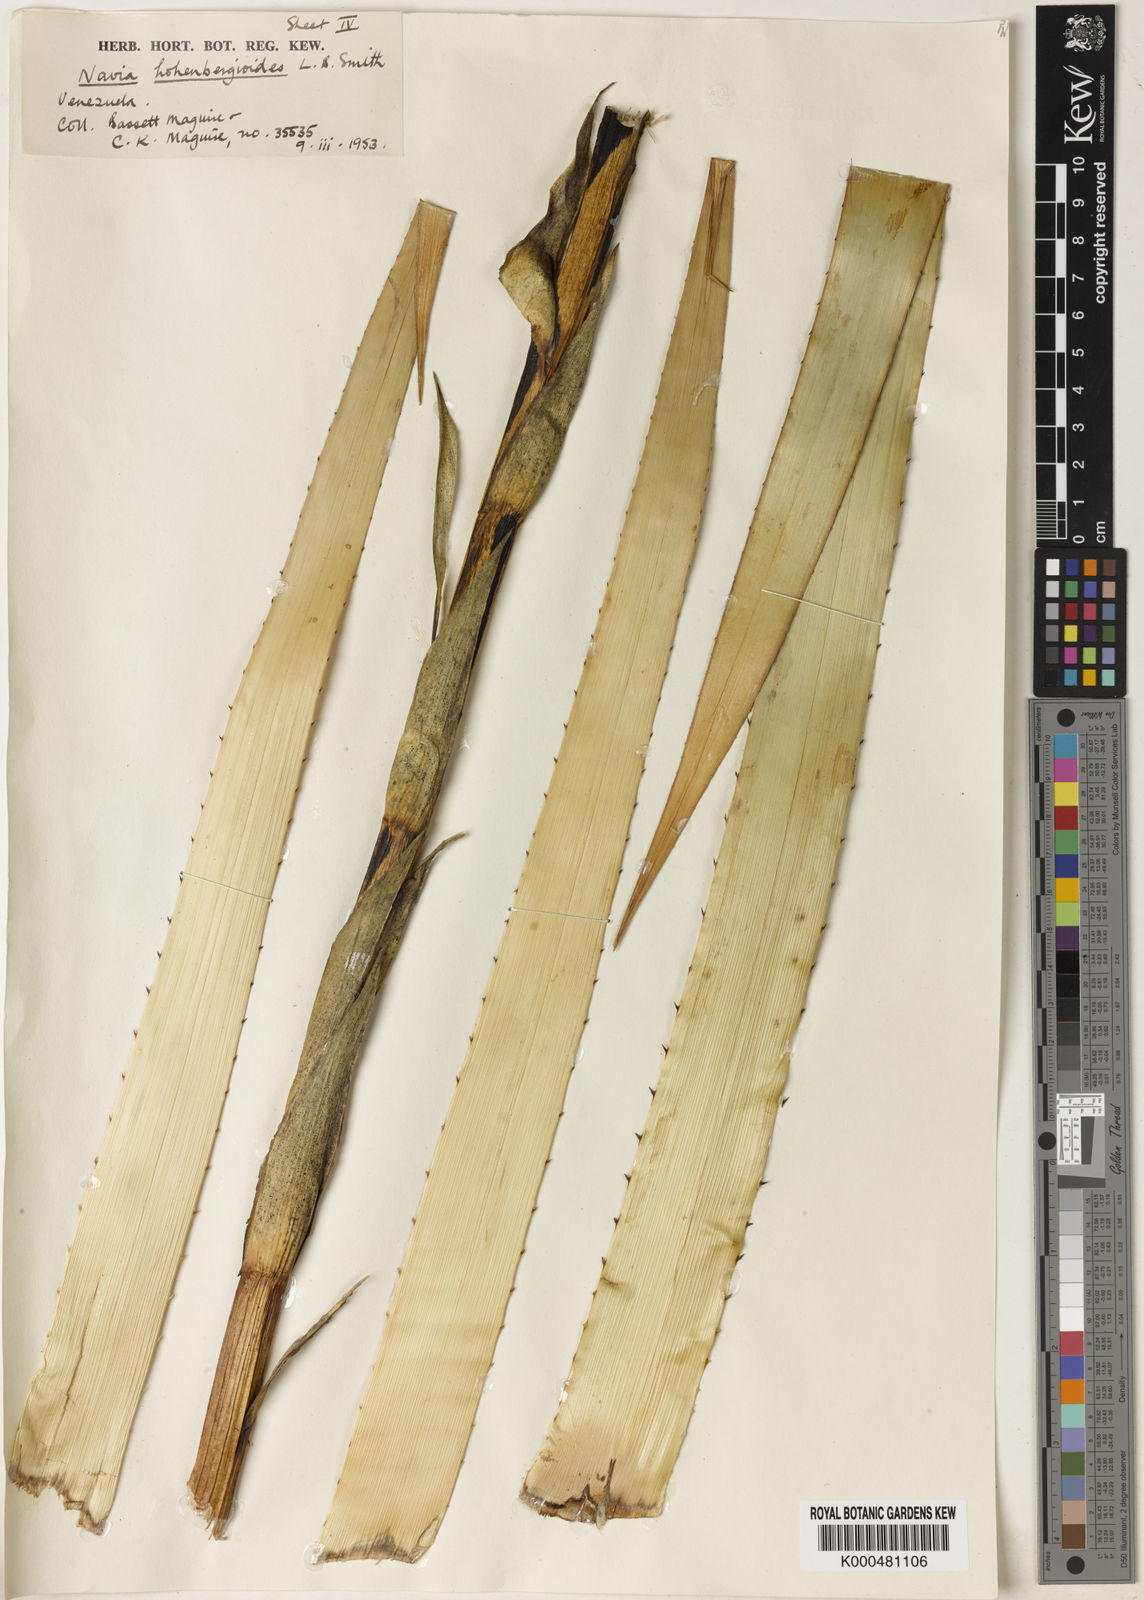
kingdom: Plantae
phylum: Tracheophyta
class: Liliopsida
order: Poales
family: Bromeliaceae
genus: Navia
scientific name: Navia hohenbergioides
